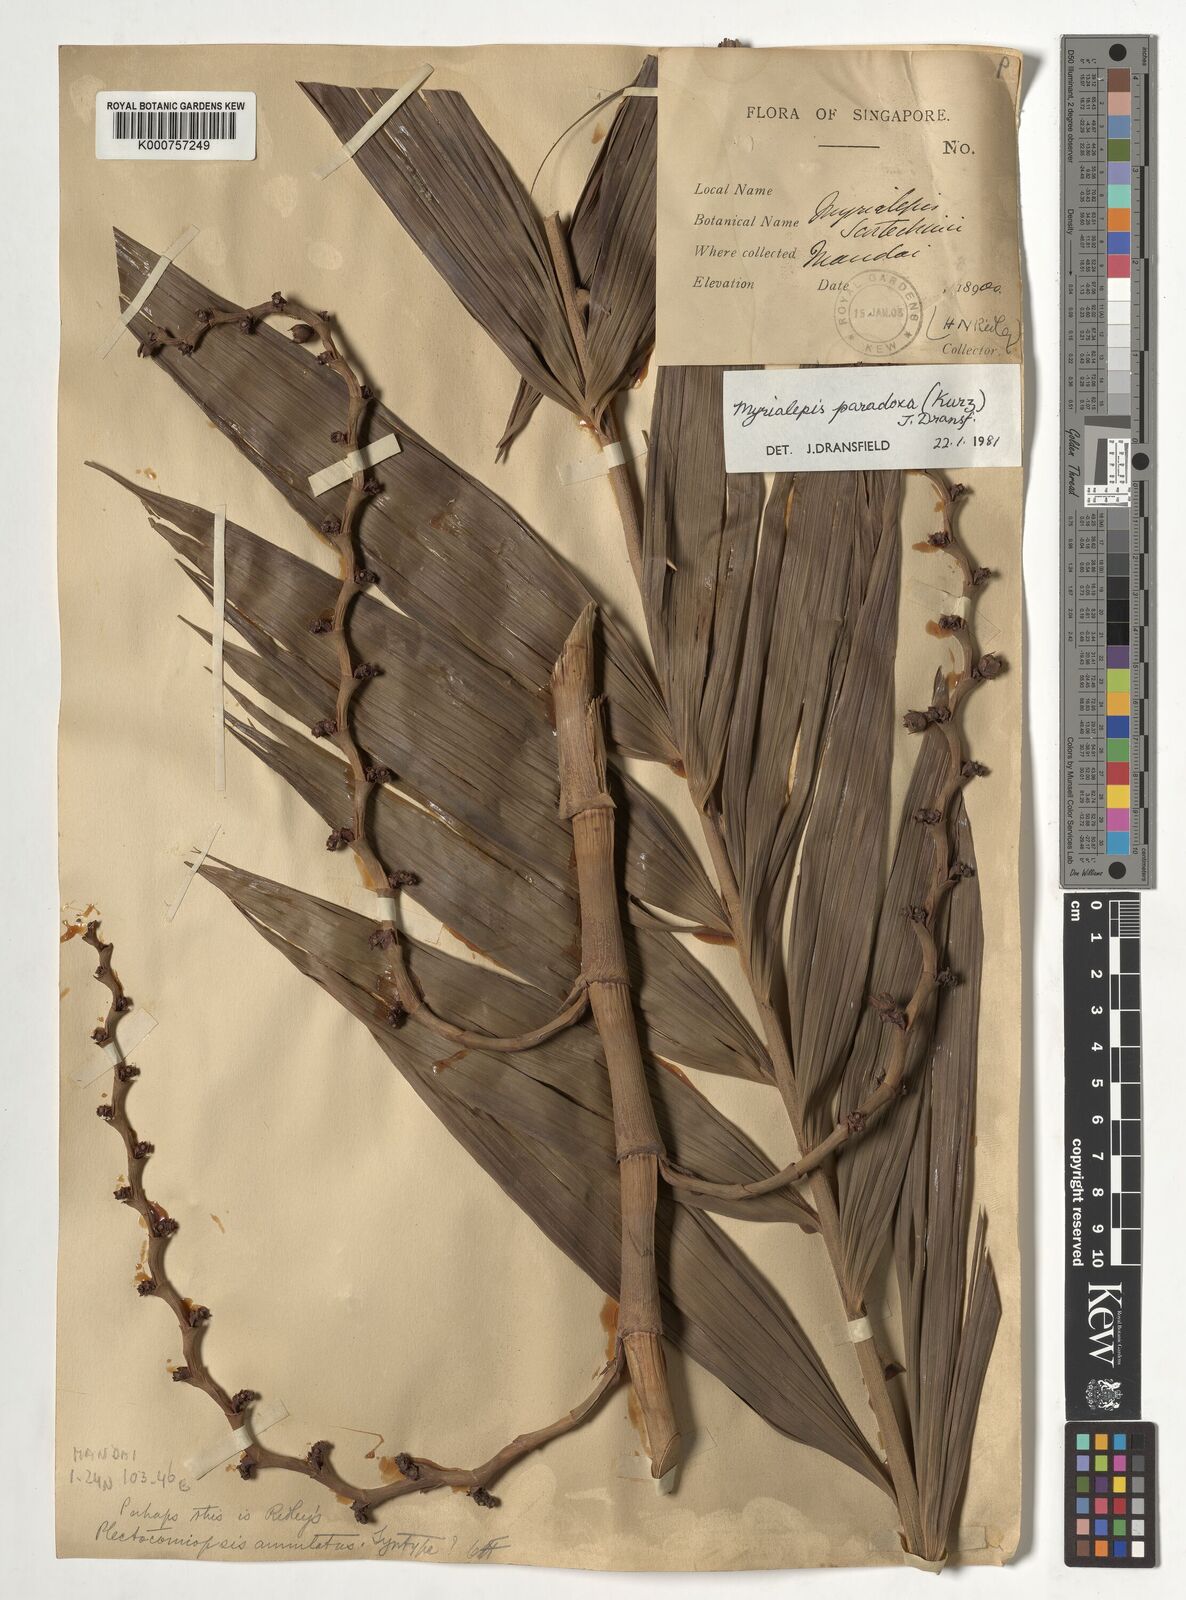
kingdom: Plantae
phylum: Tracheophyta
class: Liliopsida
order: Arecales
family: Arecaceae
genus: Myrialepis
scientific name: Myrialepis paradoxa
